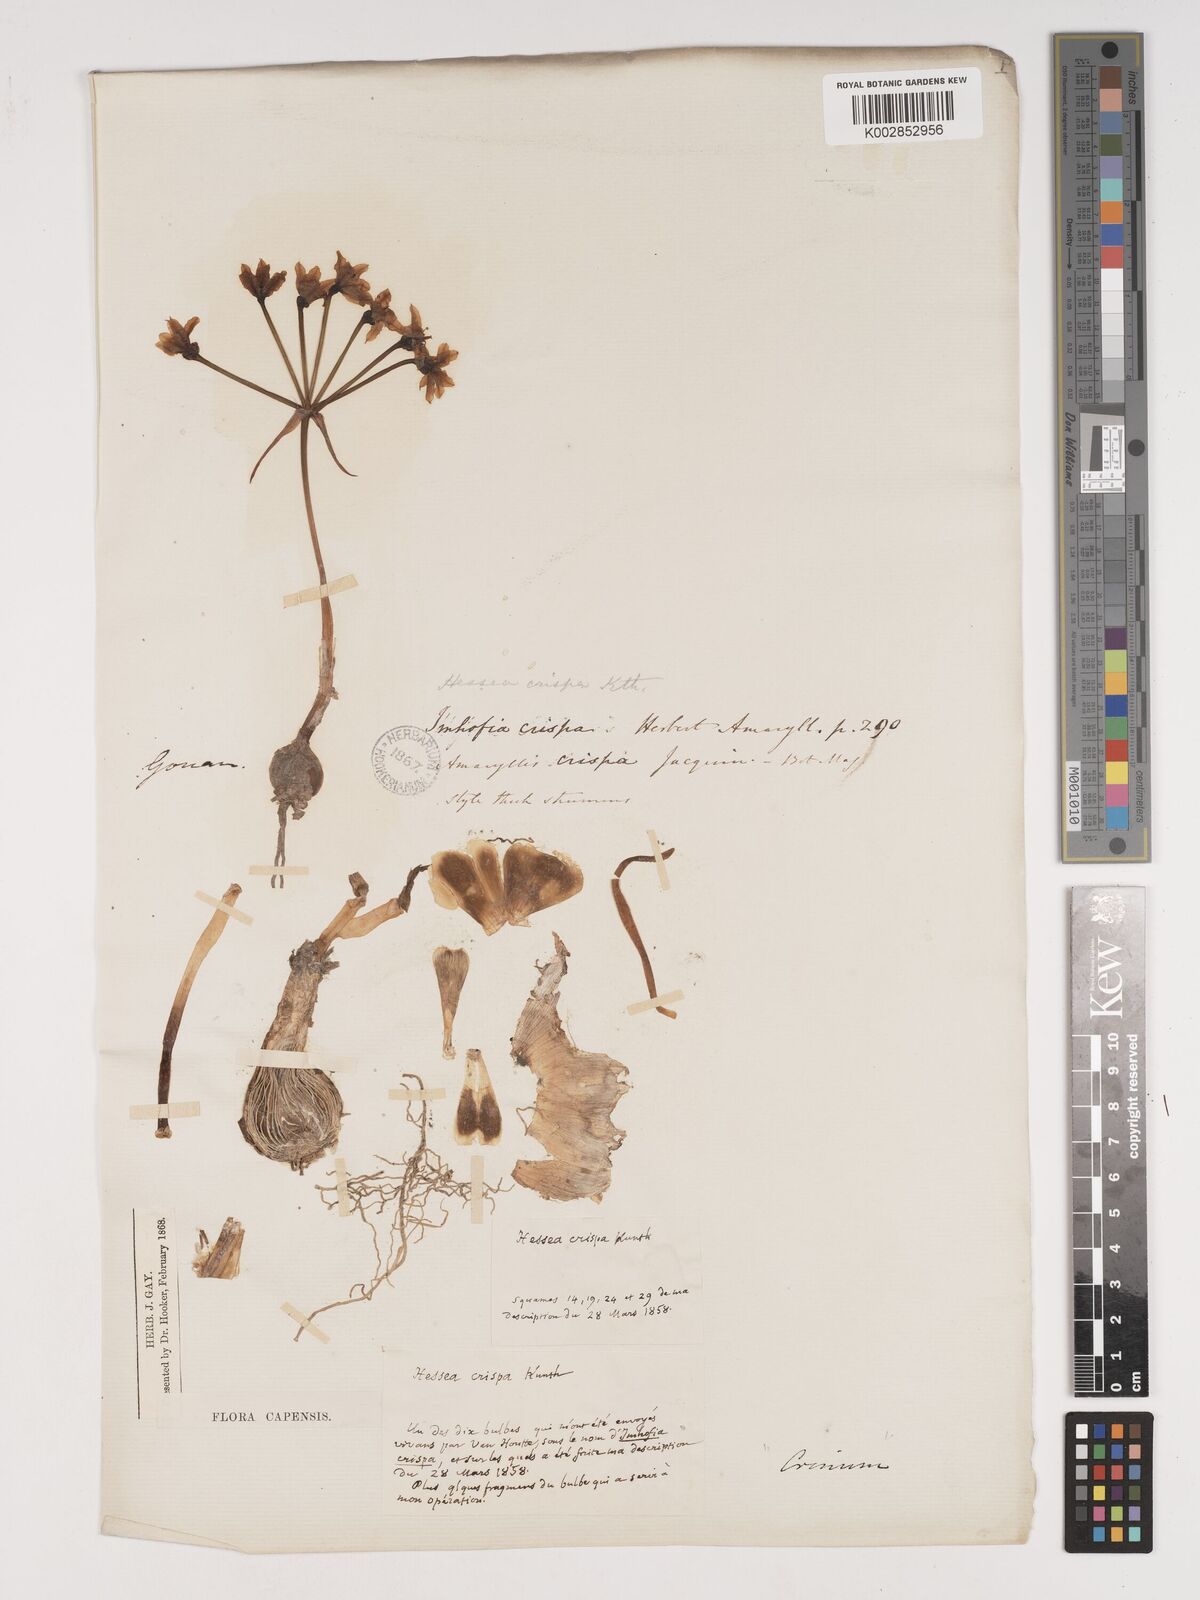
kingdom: Plantae
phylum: Tracheophyta
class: Liliopsida
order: Asparagales
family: Amaryllidaceae
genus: Hessea
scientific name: Hessea cinnamomea
